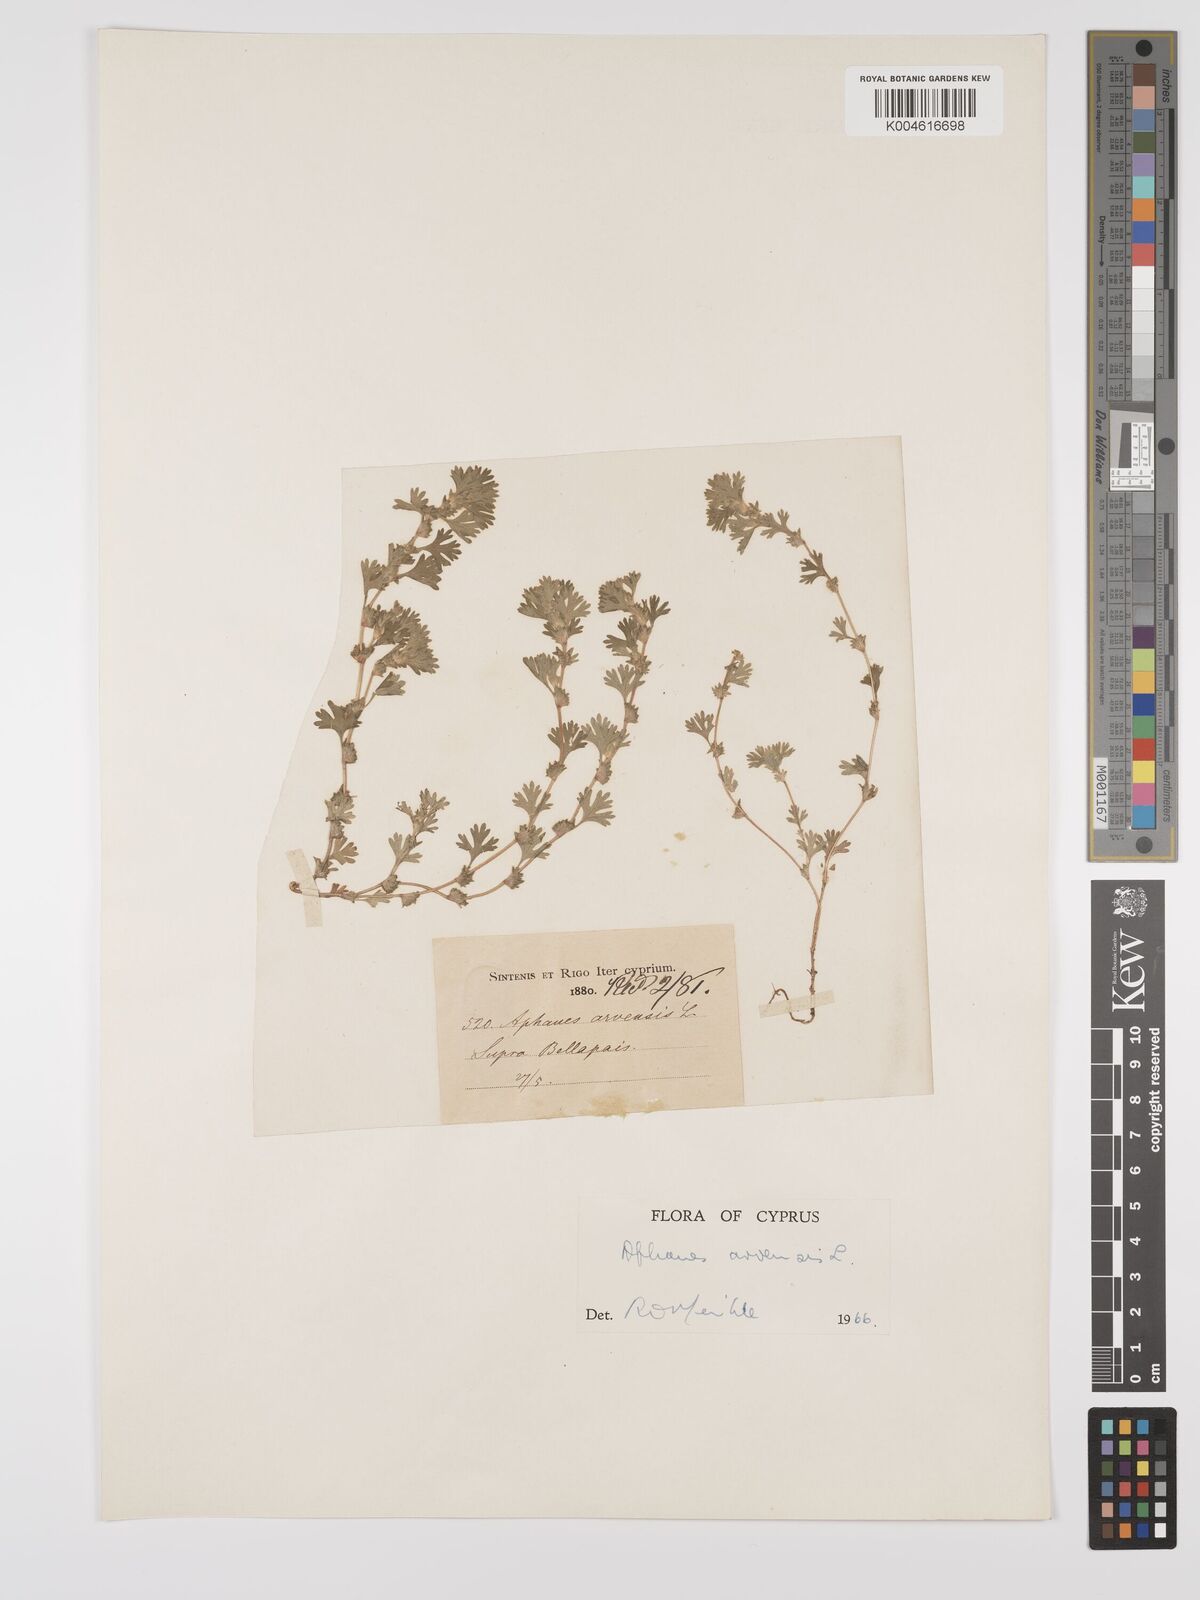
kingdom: Plantae
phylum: Tracheophyta
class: Magnoliopsida
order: Rosales
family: Rosaceae
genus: Aphanes
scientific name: Aphanes arvensis
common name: Parsley-piert
